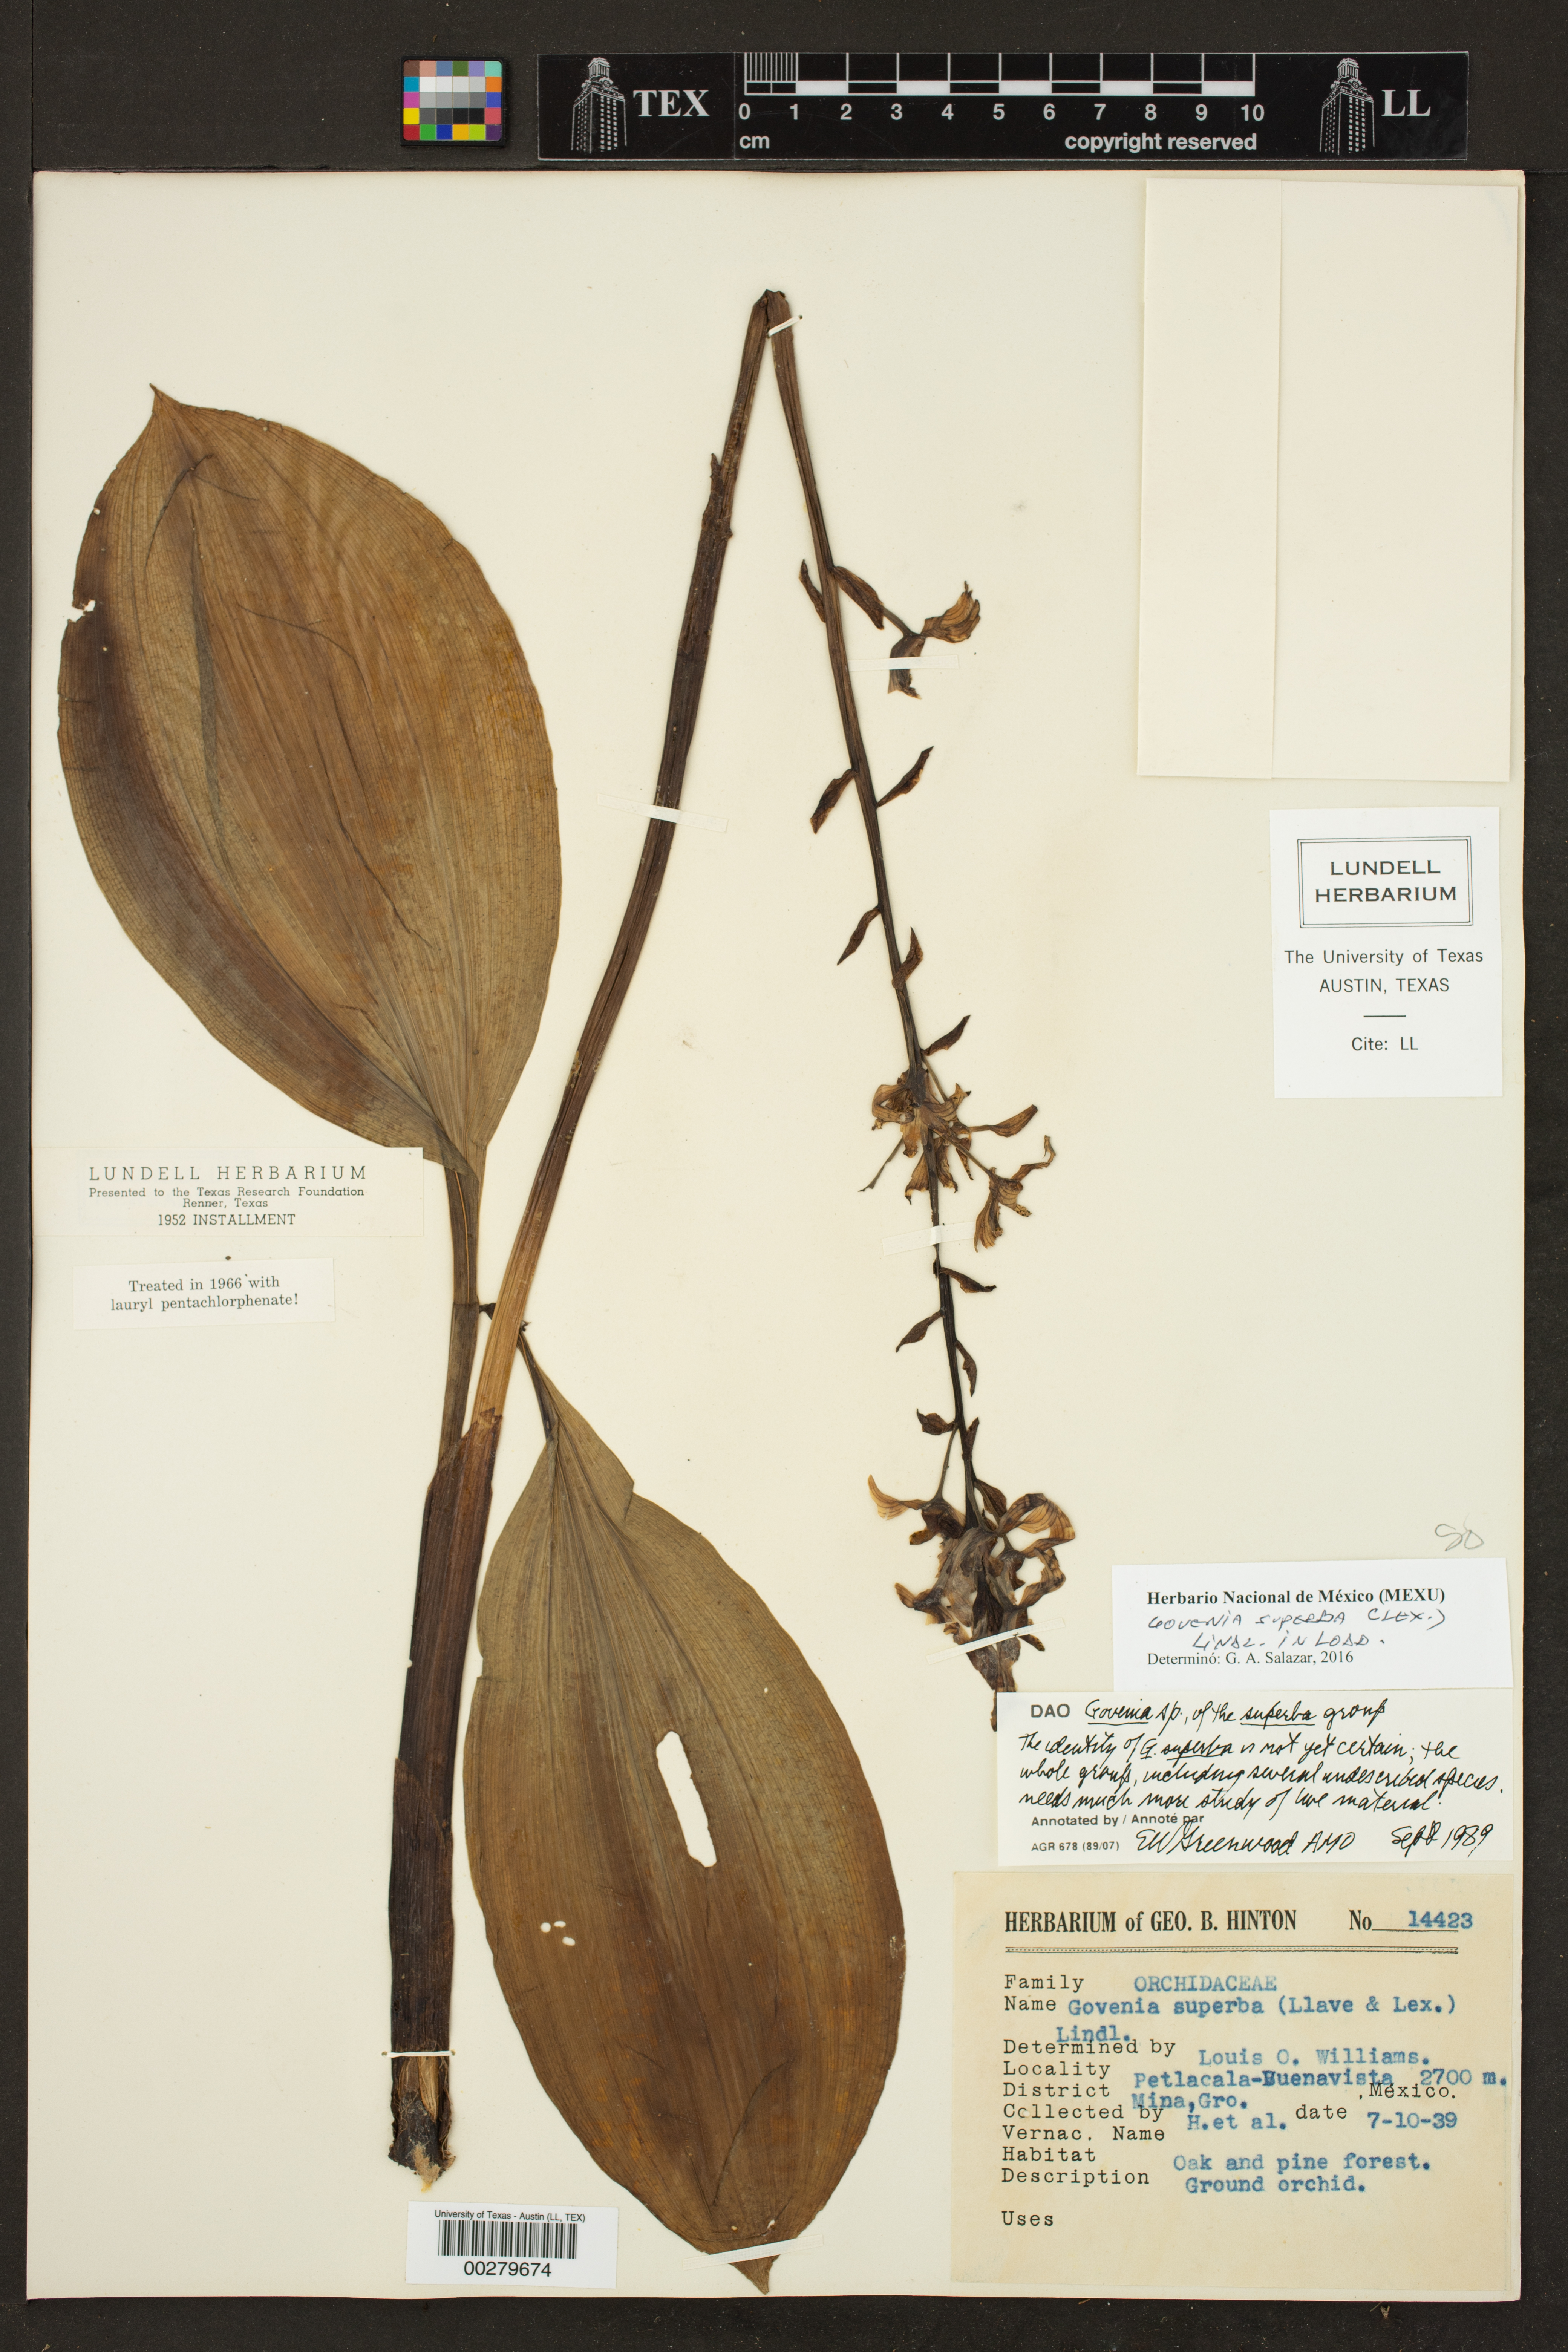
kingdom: Plantae
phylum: Tracheophyta
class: Liliopsida
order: Asparagales
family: Orchidaceae
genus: Govenia
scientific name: Govenia superba
